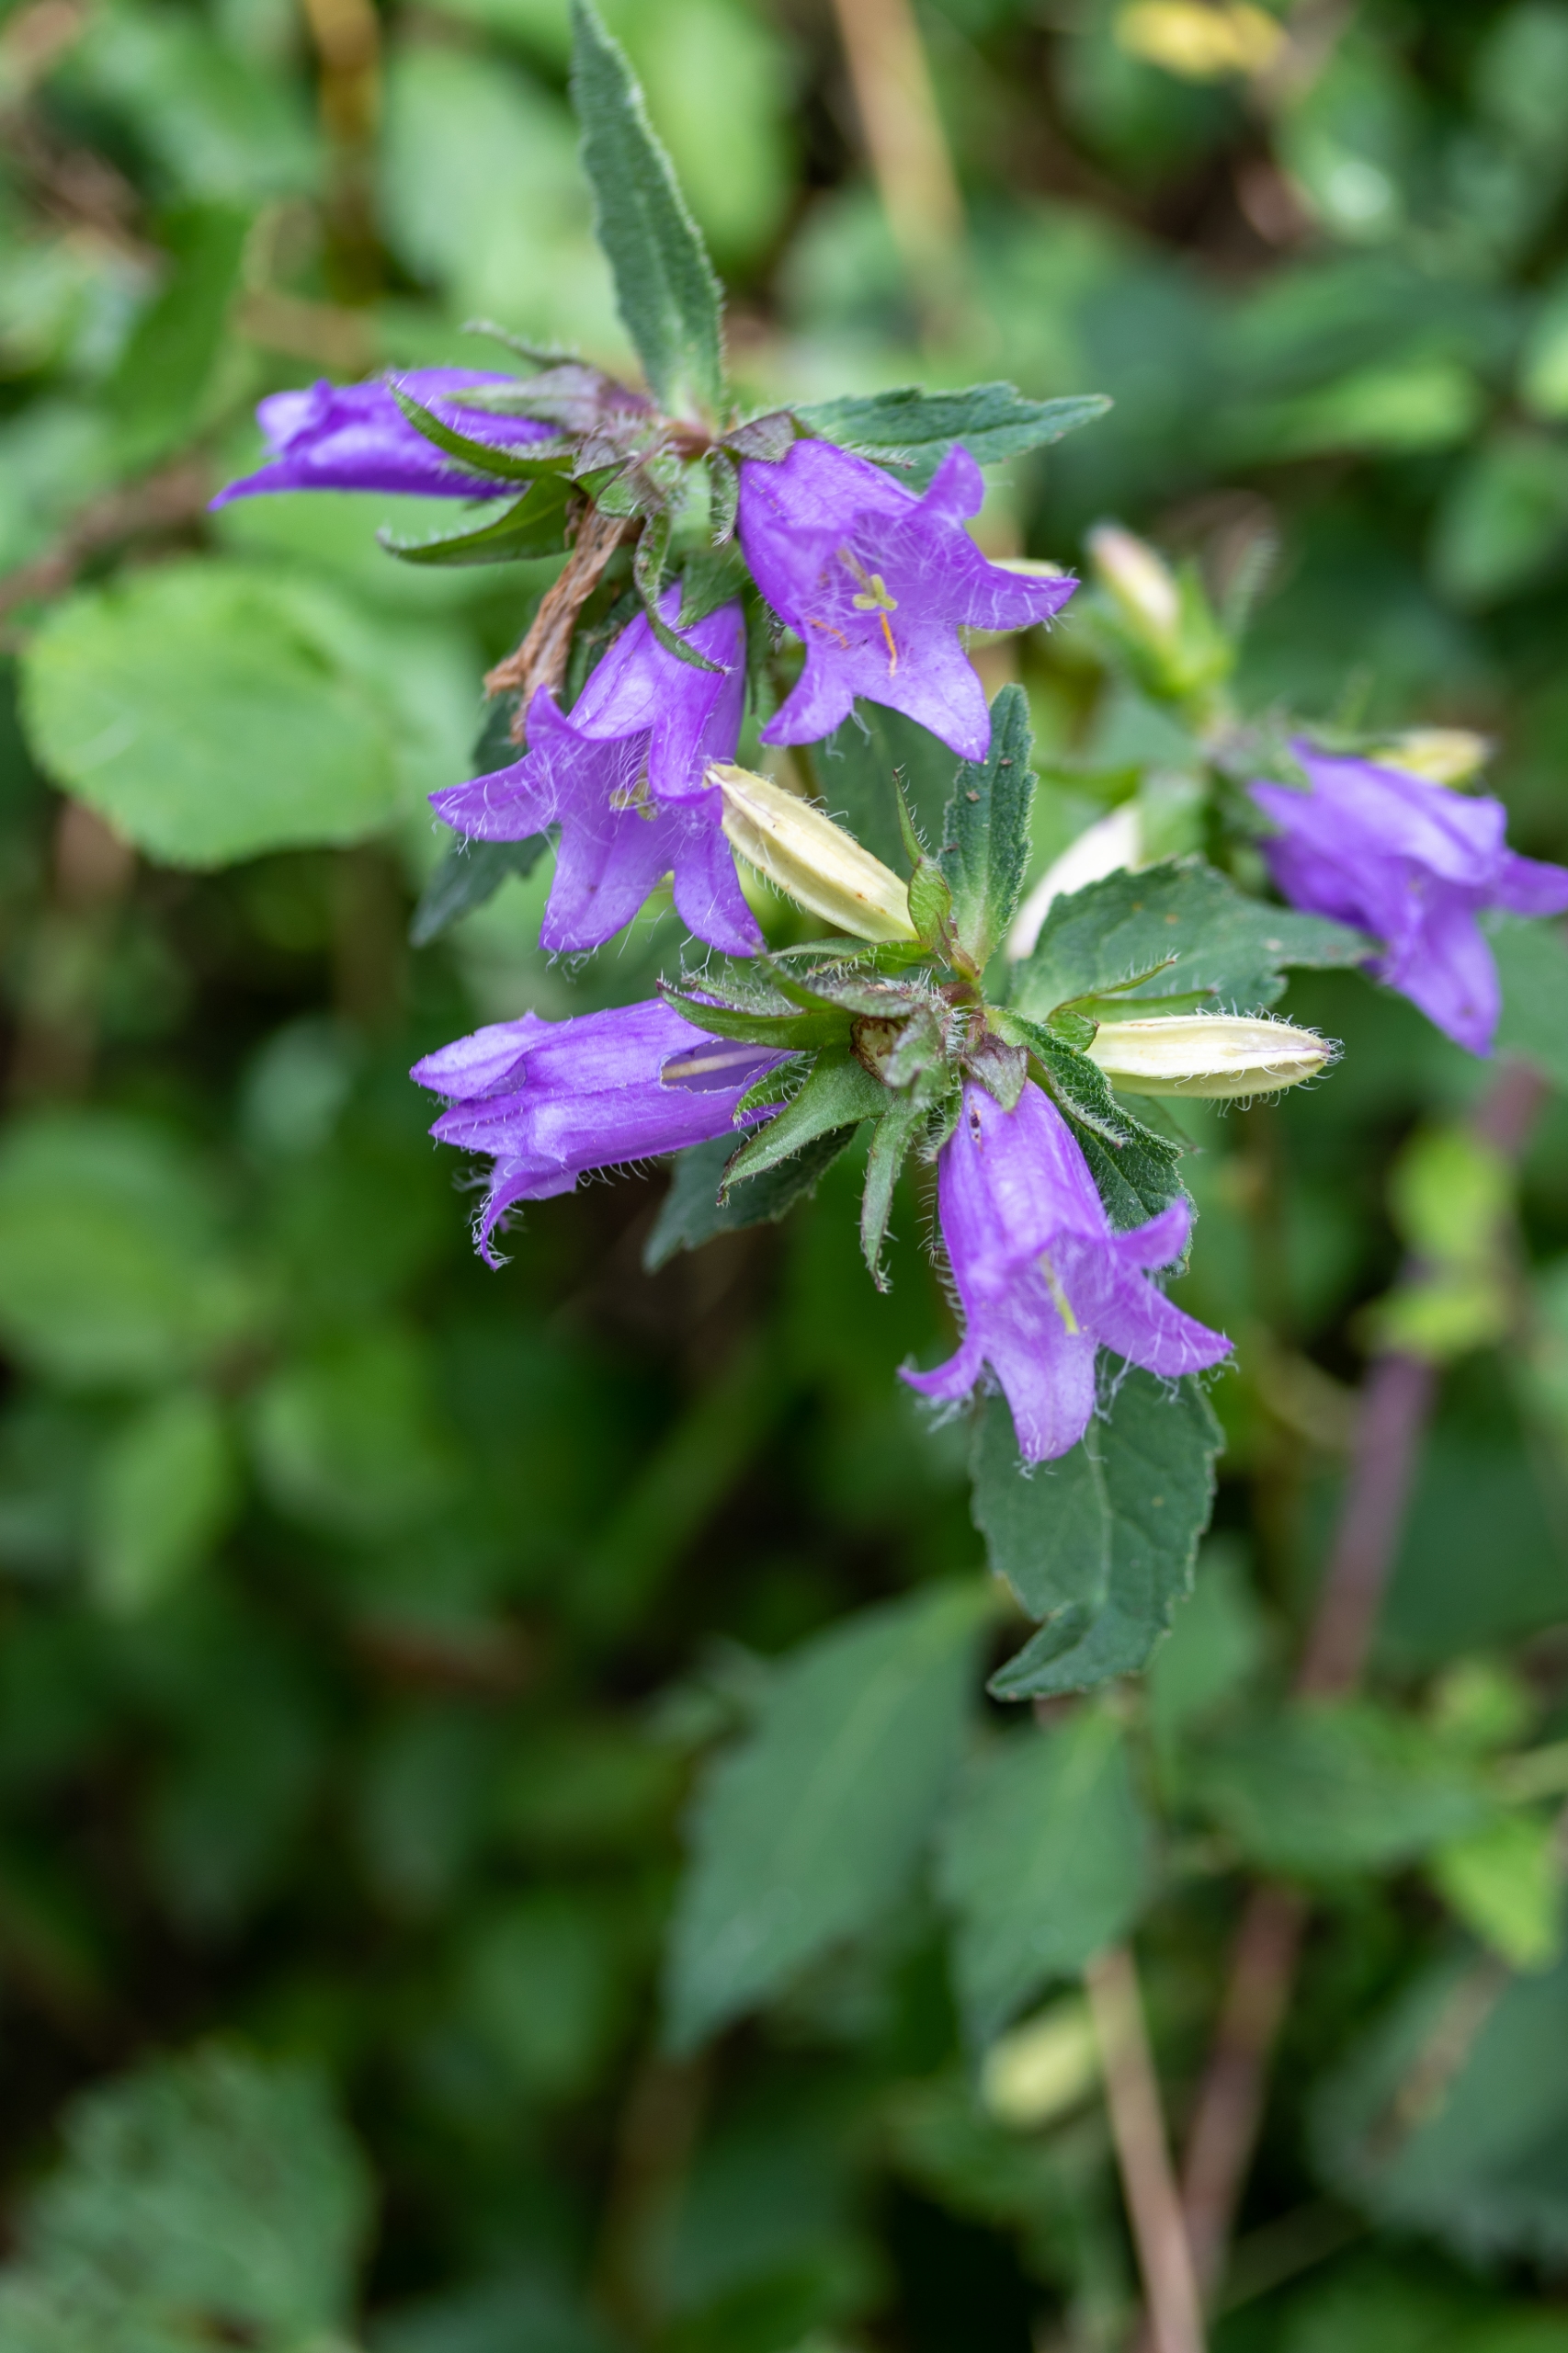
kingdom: Plantae
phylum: Tracheophyta
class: Magnoliopsida
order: Asterales
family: Campanulaceae
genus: Campanula
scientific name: Campanula trachelium
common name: Nælde-klokke
